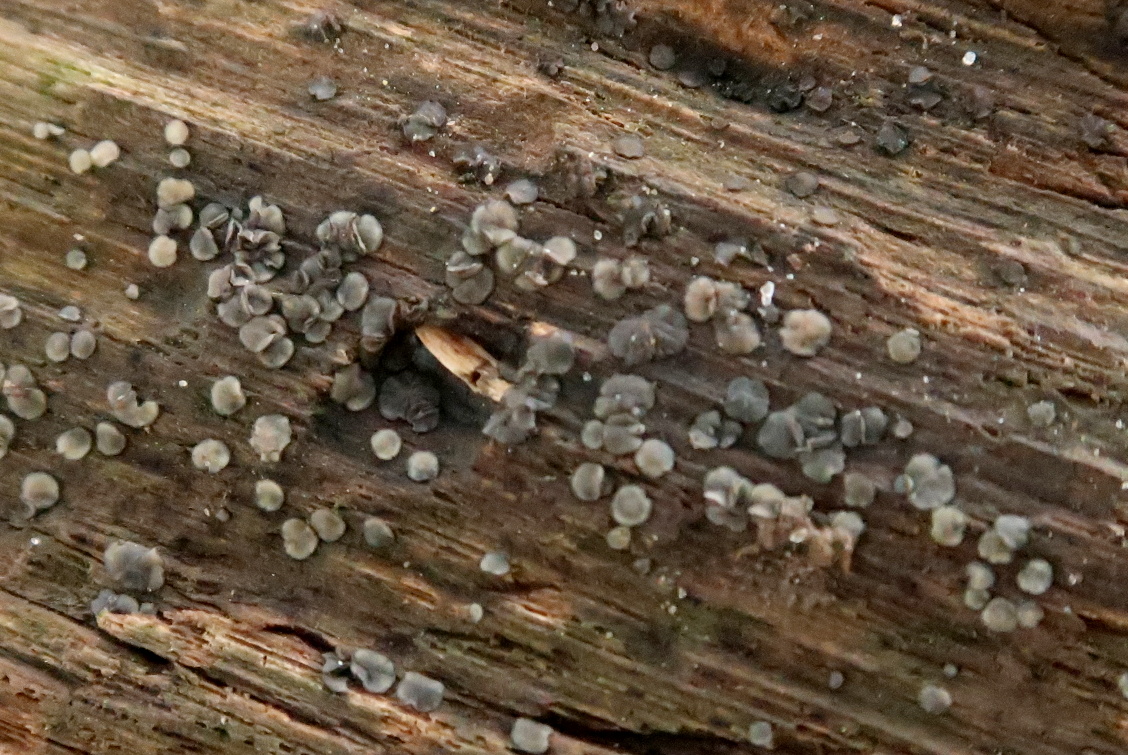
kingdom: Fungi
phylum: Ascomycota
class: Leotiomycetes
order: Helotiales
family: Mollisiaceae
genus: Mollisia
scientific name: Mollisia
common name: gråskive
